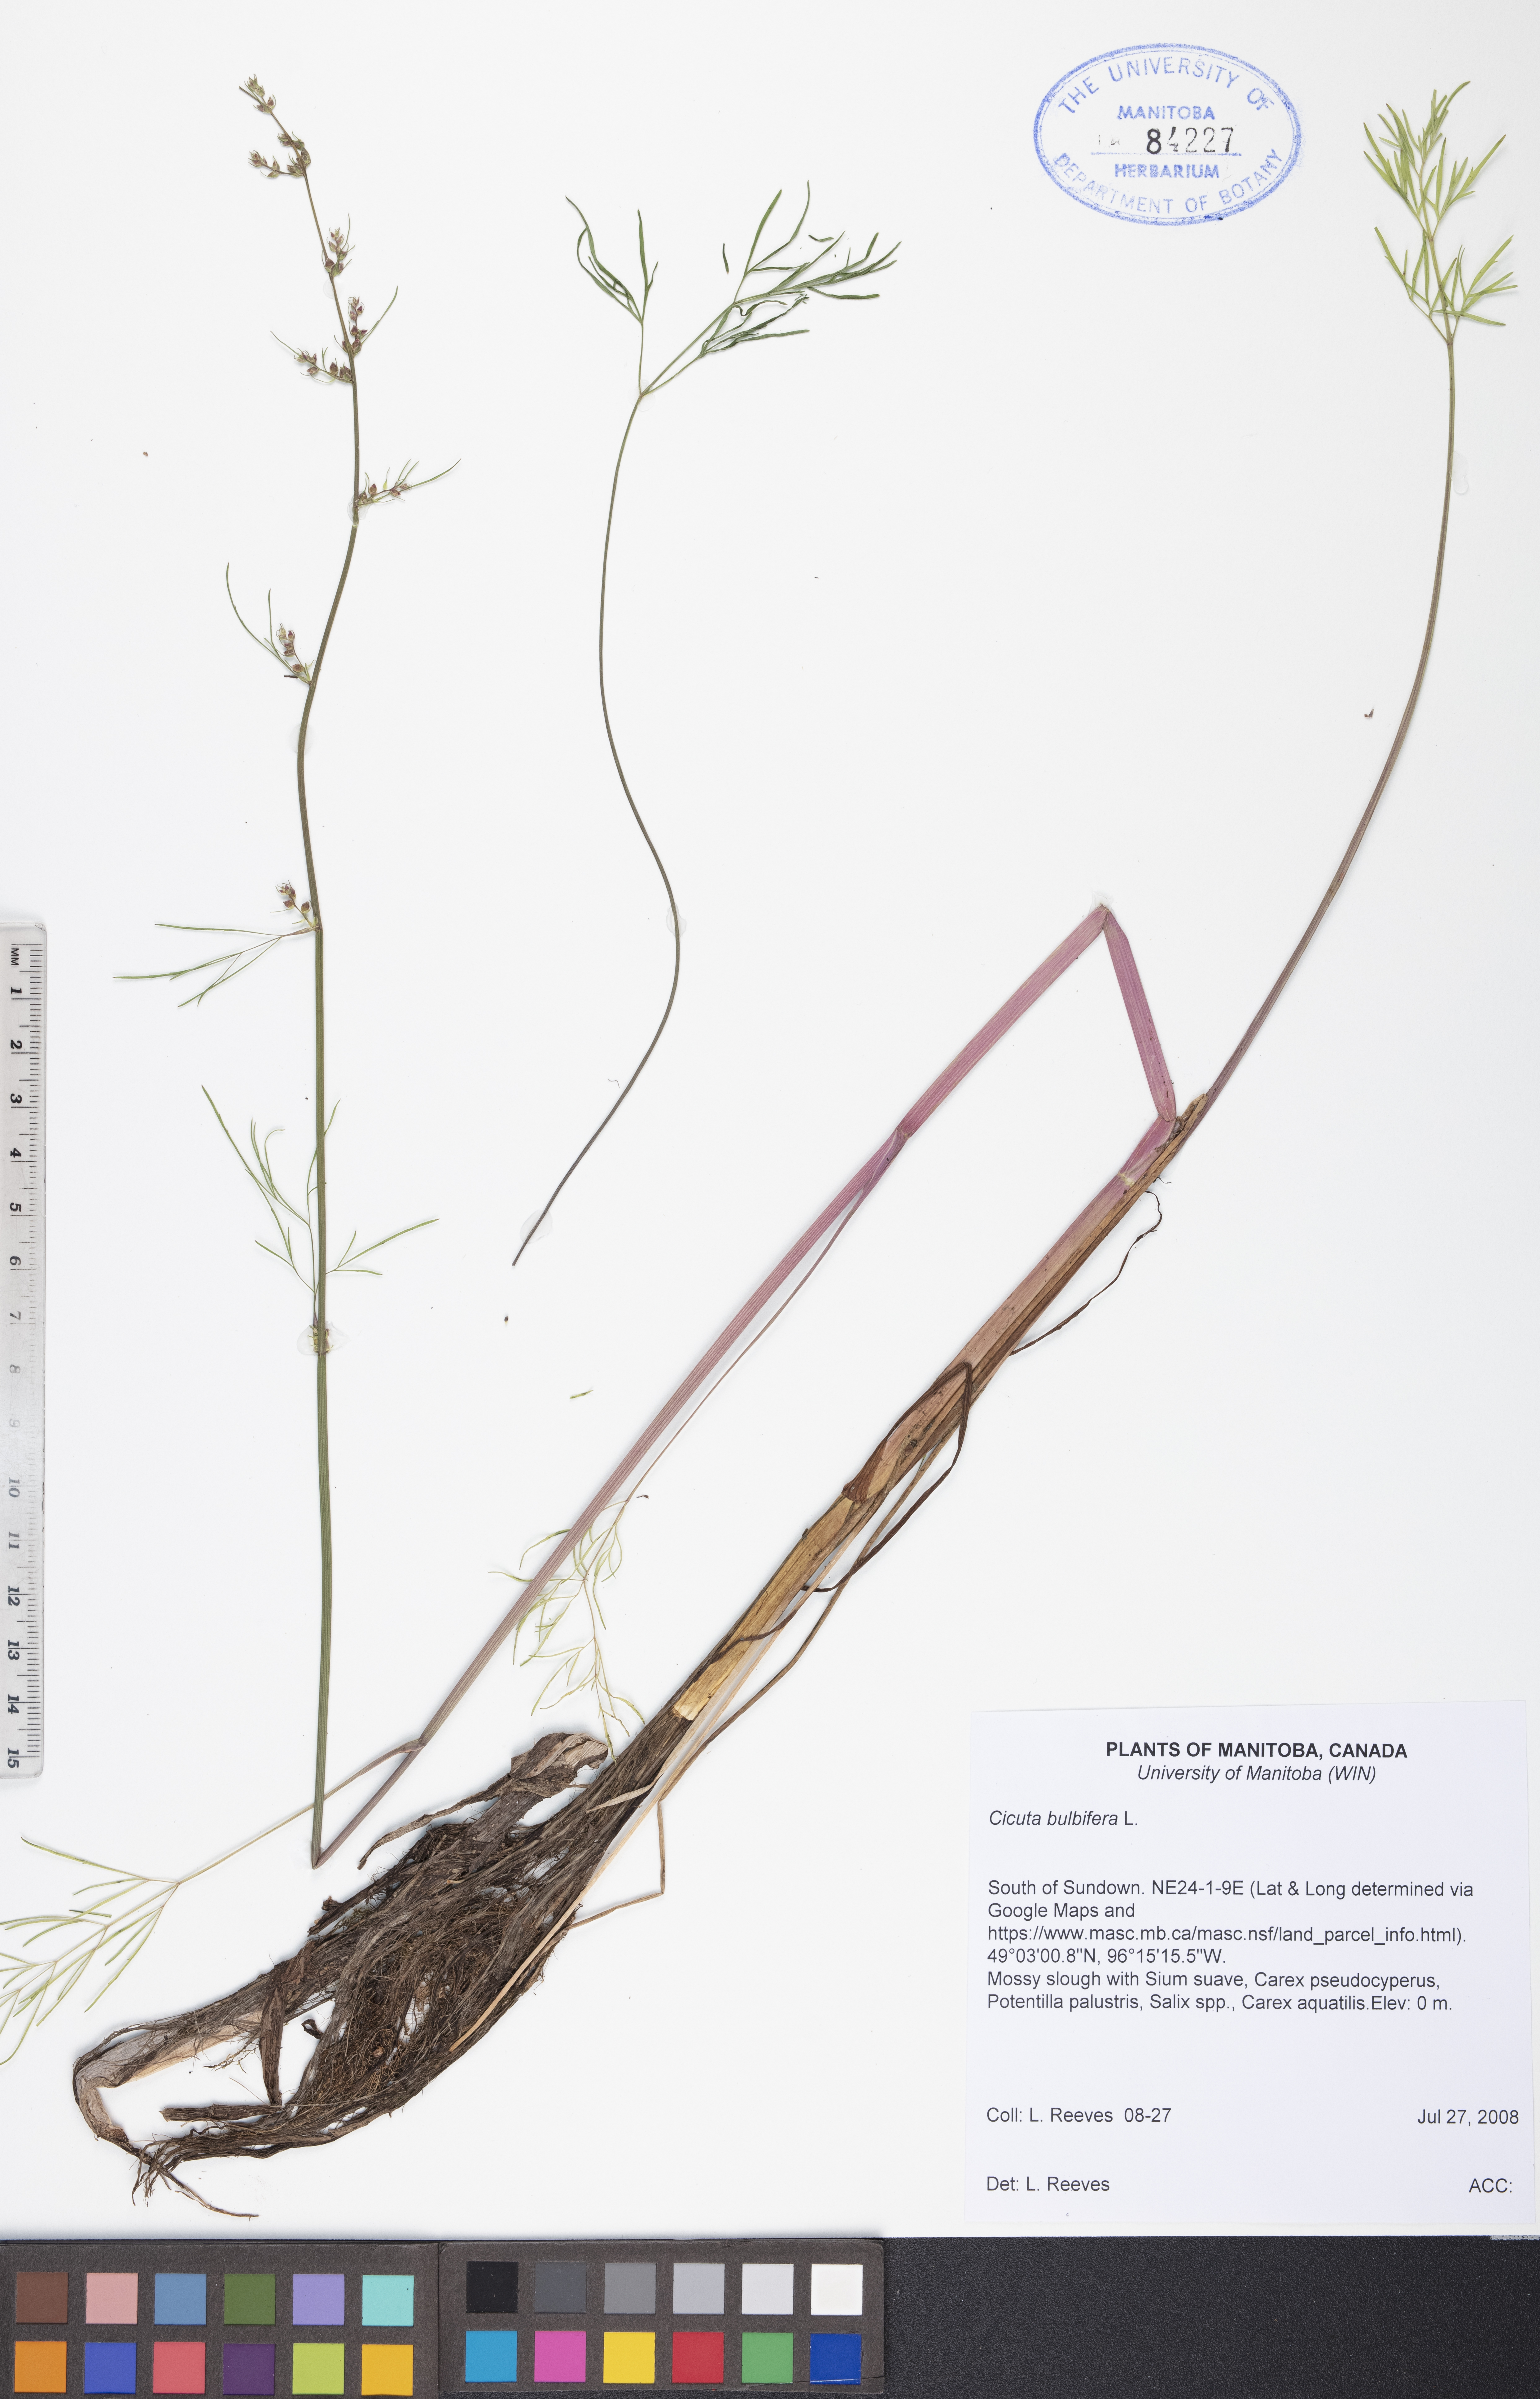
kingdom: Plantae
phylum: Tracheophyta
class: Magnoliopsida
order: Apiales
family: Apiaceae
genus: Cicuta
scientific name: Cicuta bulbifera
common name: Bulb-bearing water-hemlock
